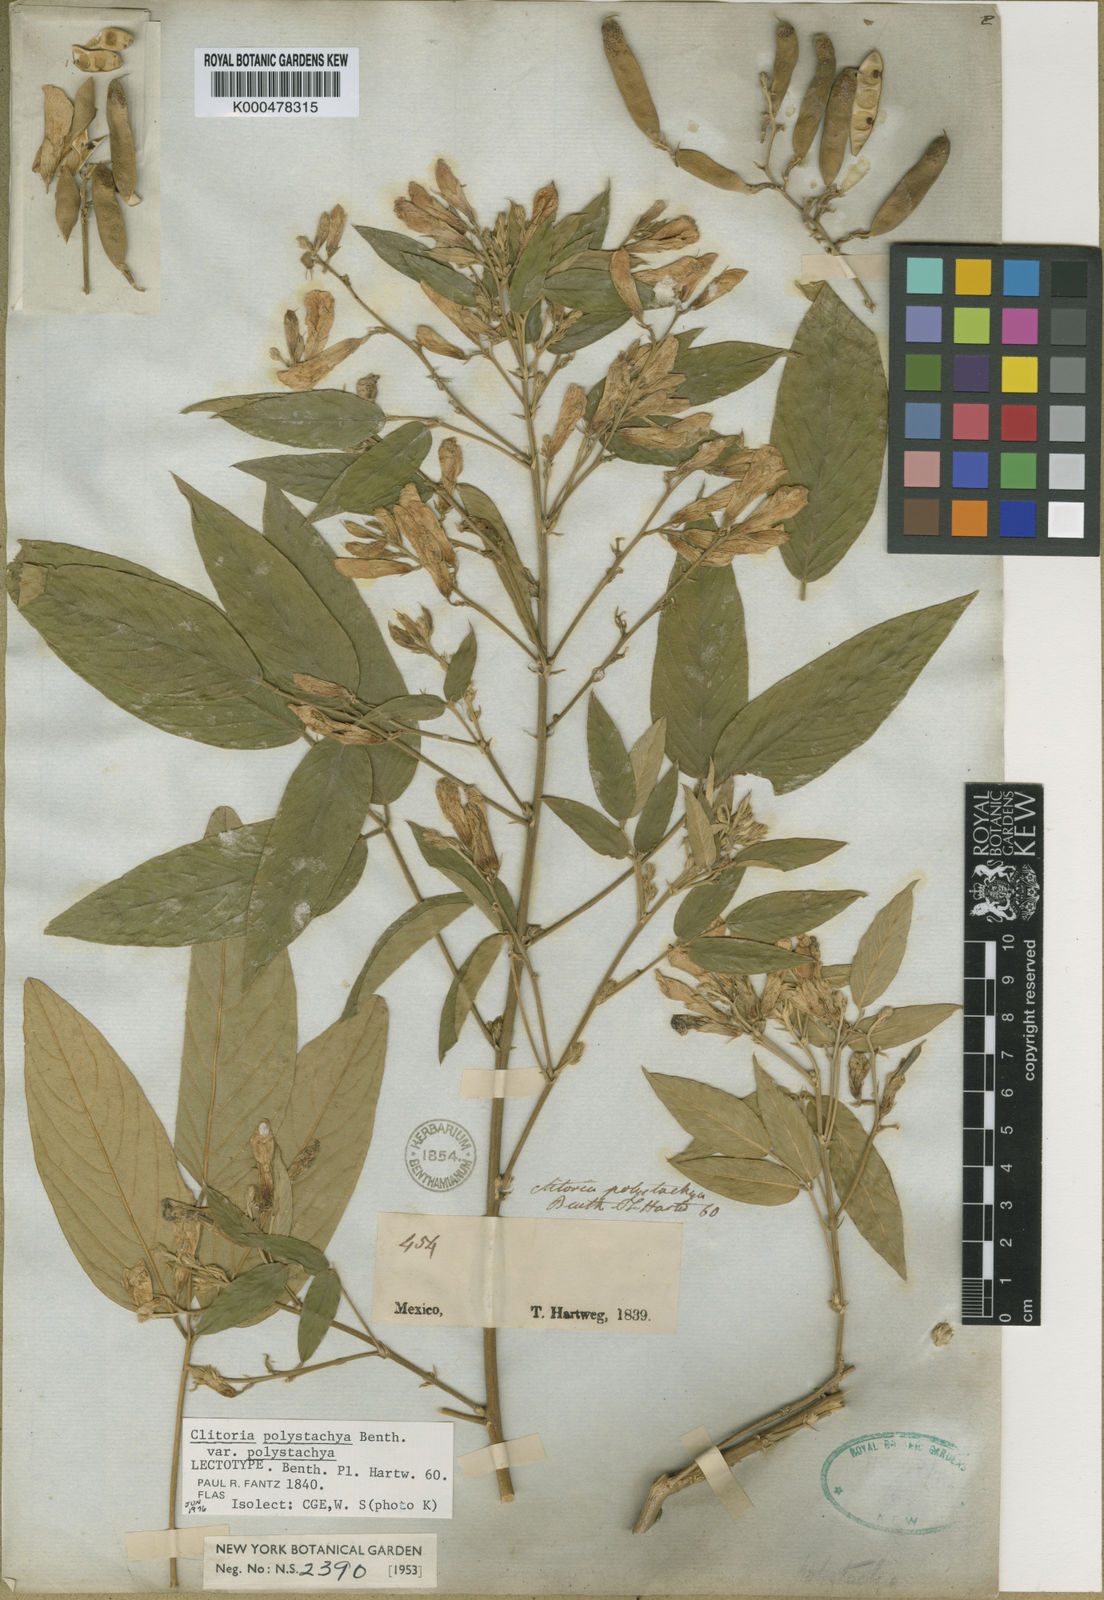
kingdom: Plantae
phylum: Tracheophyta
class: Magnoliopsida
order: Fabales
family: Fabaceae
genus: Clitoria
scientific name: Clitoria polystachya
